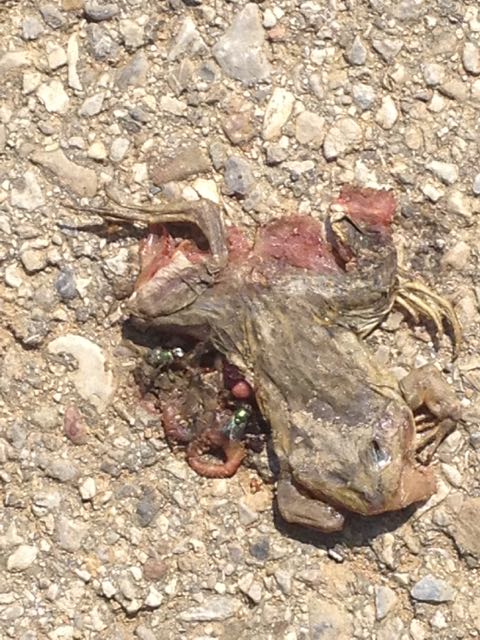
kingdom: Animalia
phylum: Chordata
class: Amphibia
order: Anura
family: Ranidae
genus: Rana
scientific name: Rana dalmatina
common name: Agile frog
